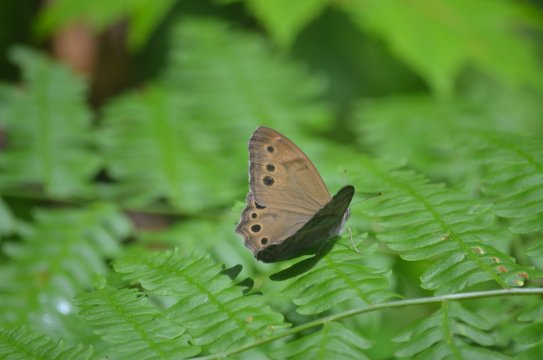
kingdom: Animalia
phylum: Arthropoda
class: Insecta
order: Lepidoptera
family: Nymphalidae
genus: Lethe
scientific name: Lethe anthedon
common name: Northern Pearly-Eye
